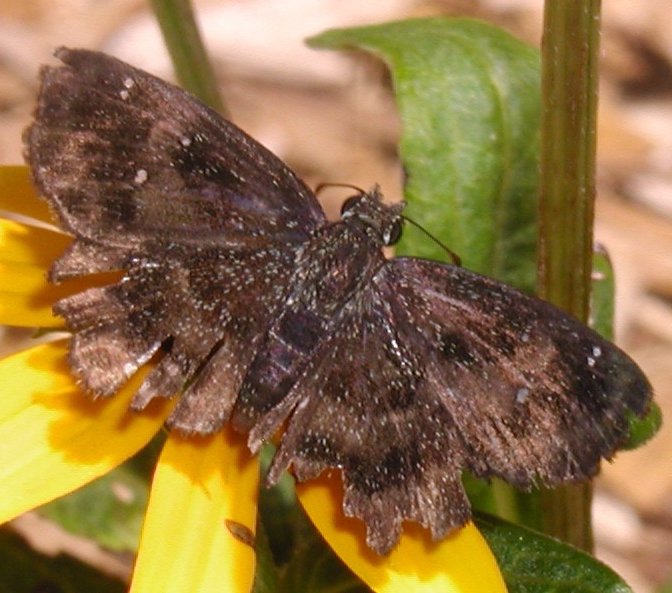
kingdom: Animalia
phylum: Arthropoda
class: Insecta
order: Lepidoptera
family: Hesperiidae
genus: Staphylus
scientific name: Staphylus mazans
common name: Hayhurst's Scallopwing
